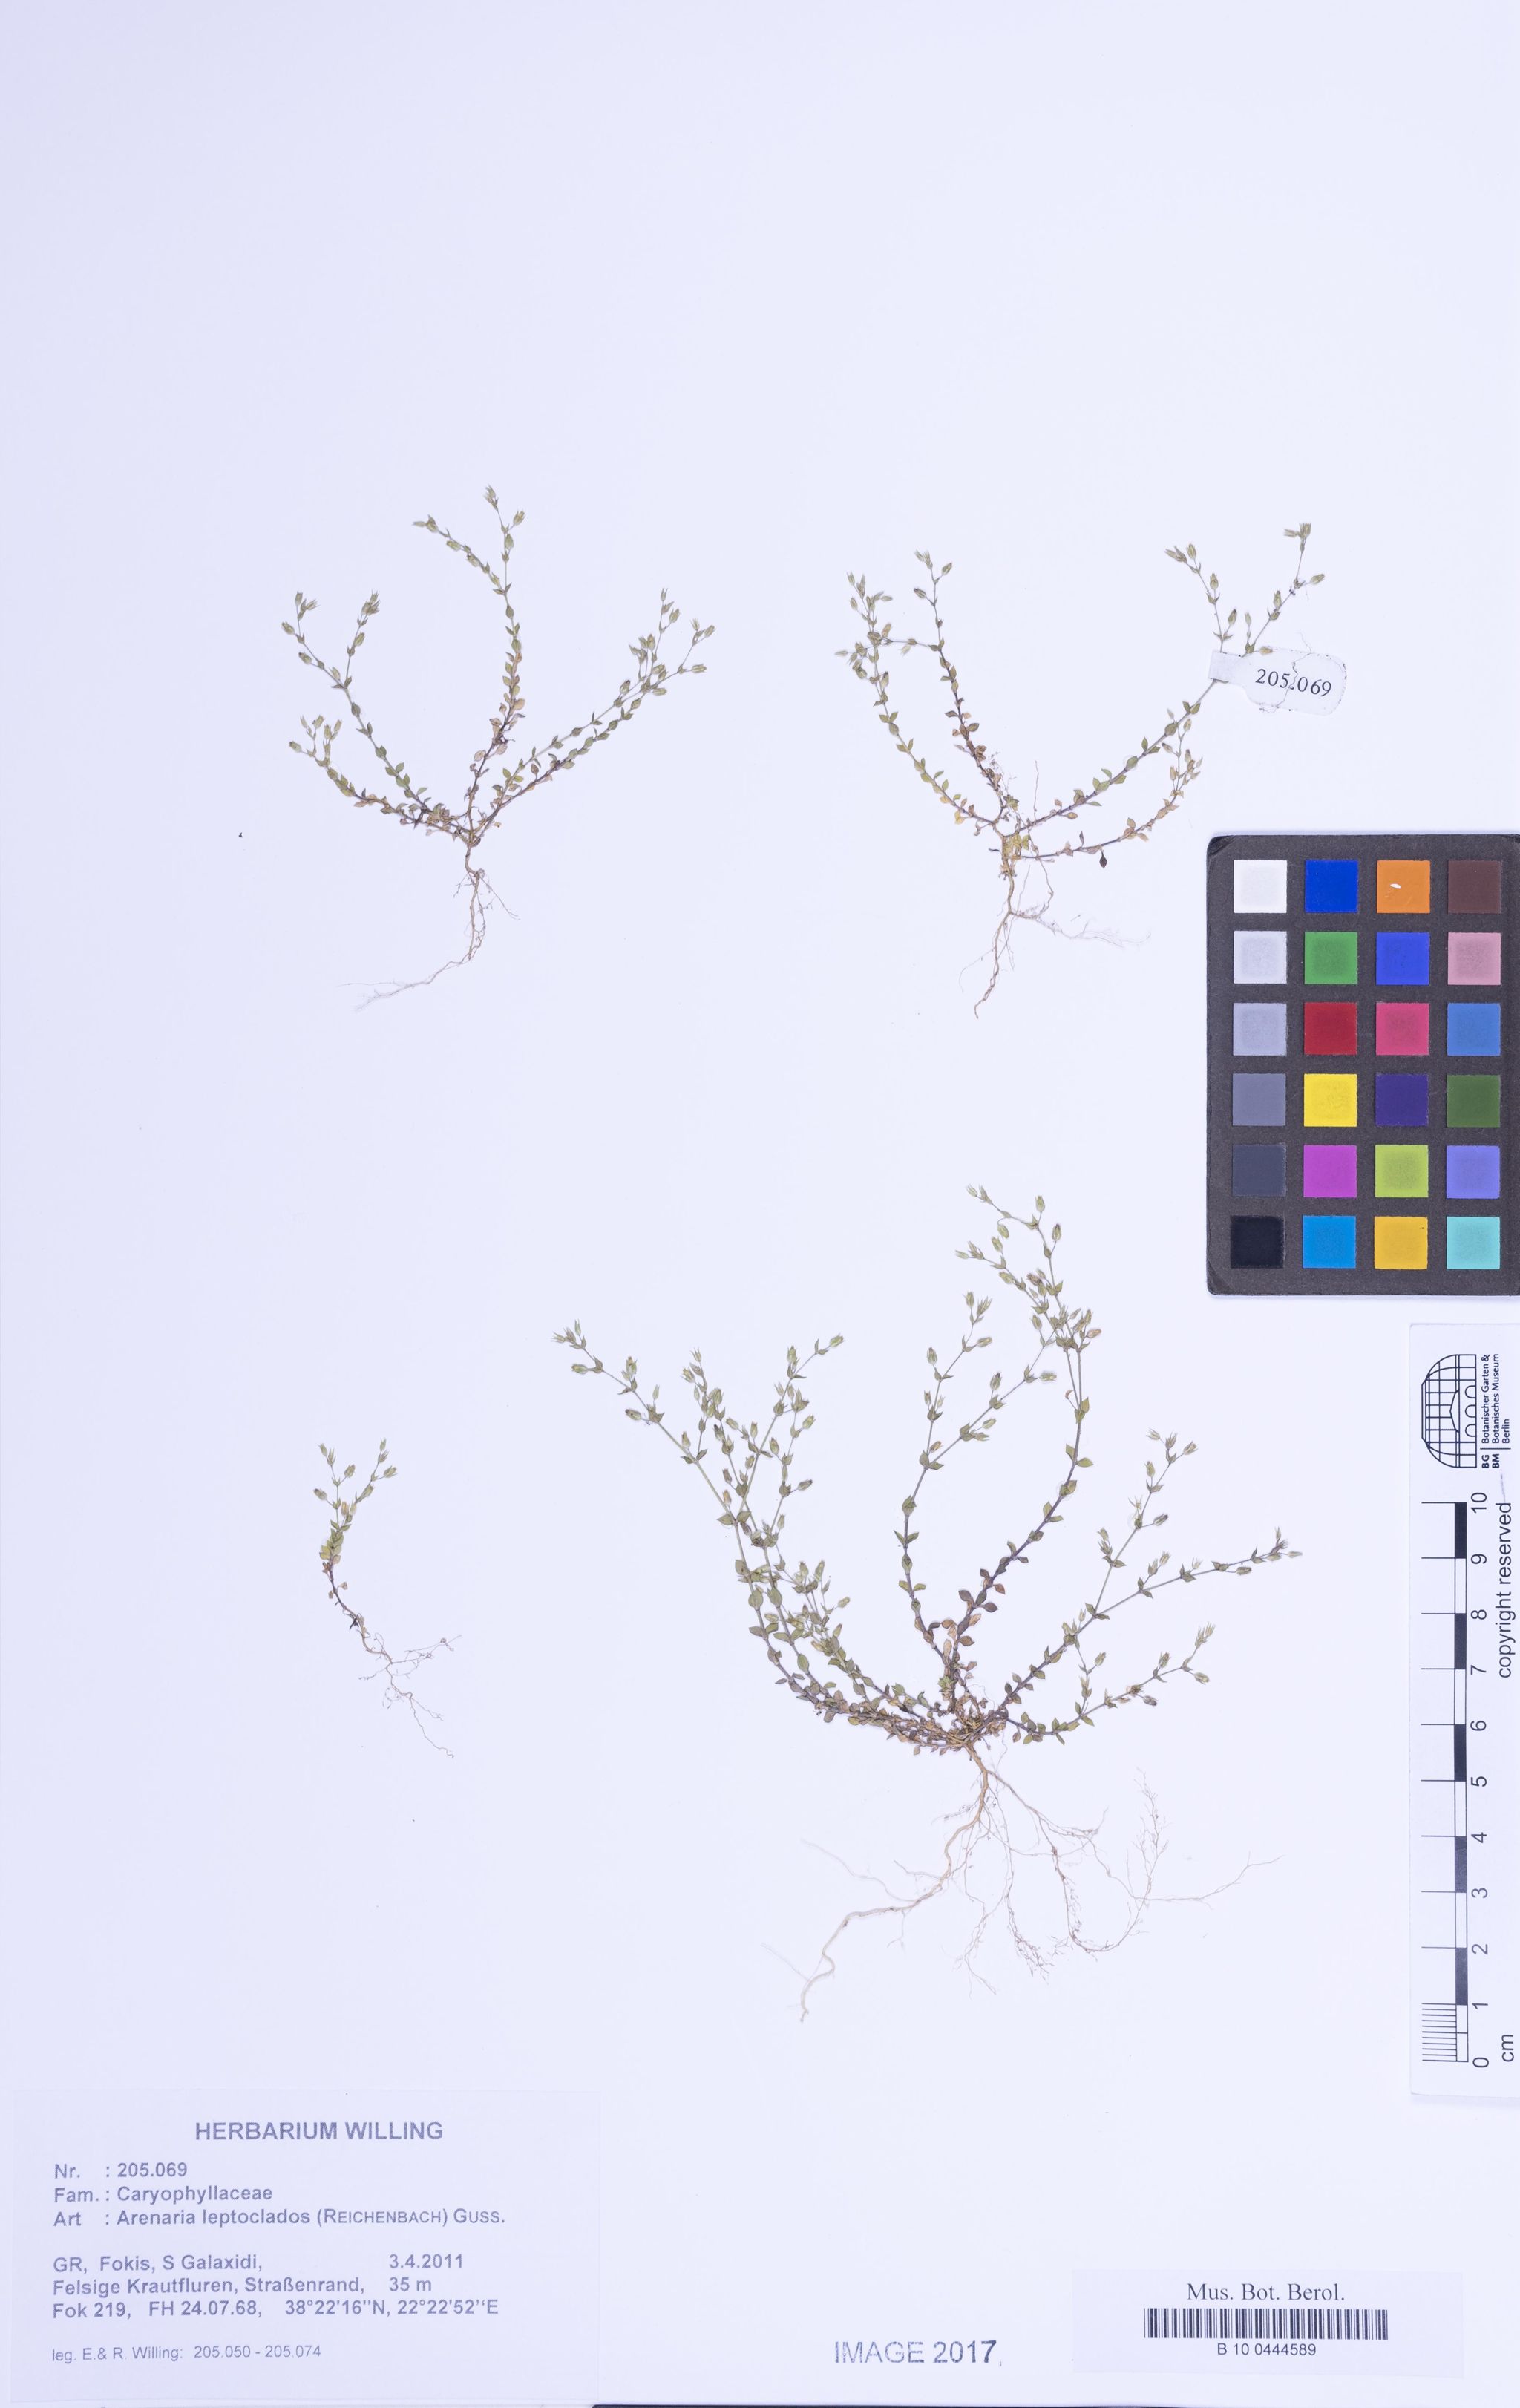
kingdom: Plantae
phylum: Tracheophyta
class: Magnoliopsida
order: Caryophyllales
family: Caryophyllaceae
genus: Arenaria
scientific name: Arenaria leptoclados
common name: Thyme-leaved sandwort
